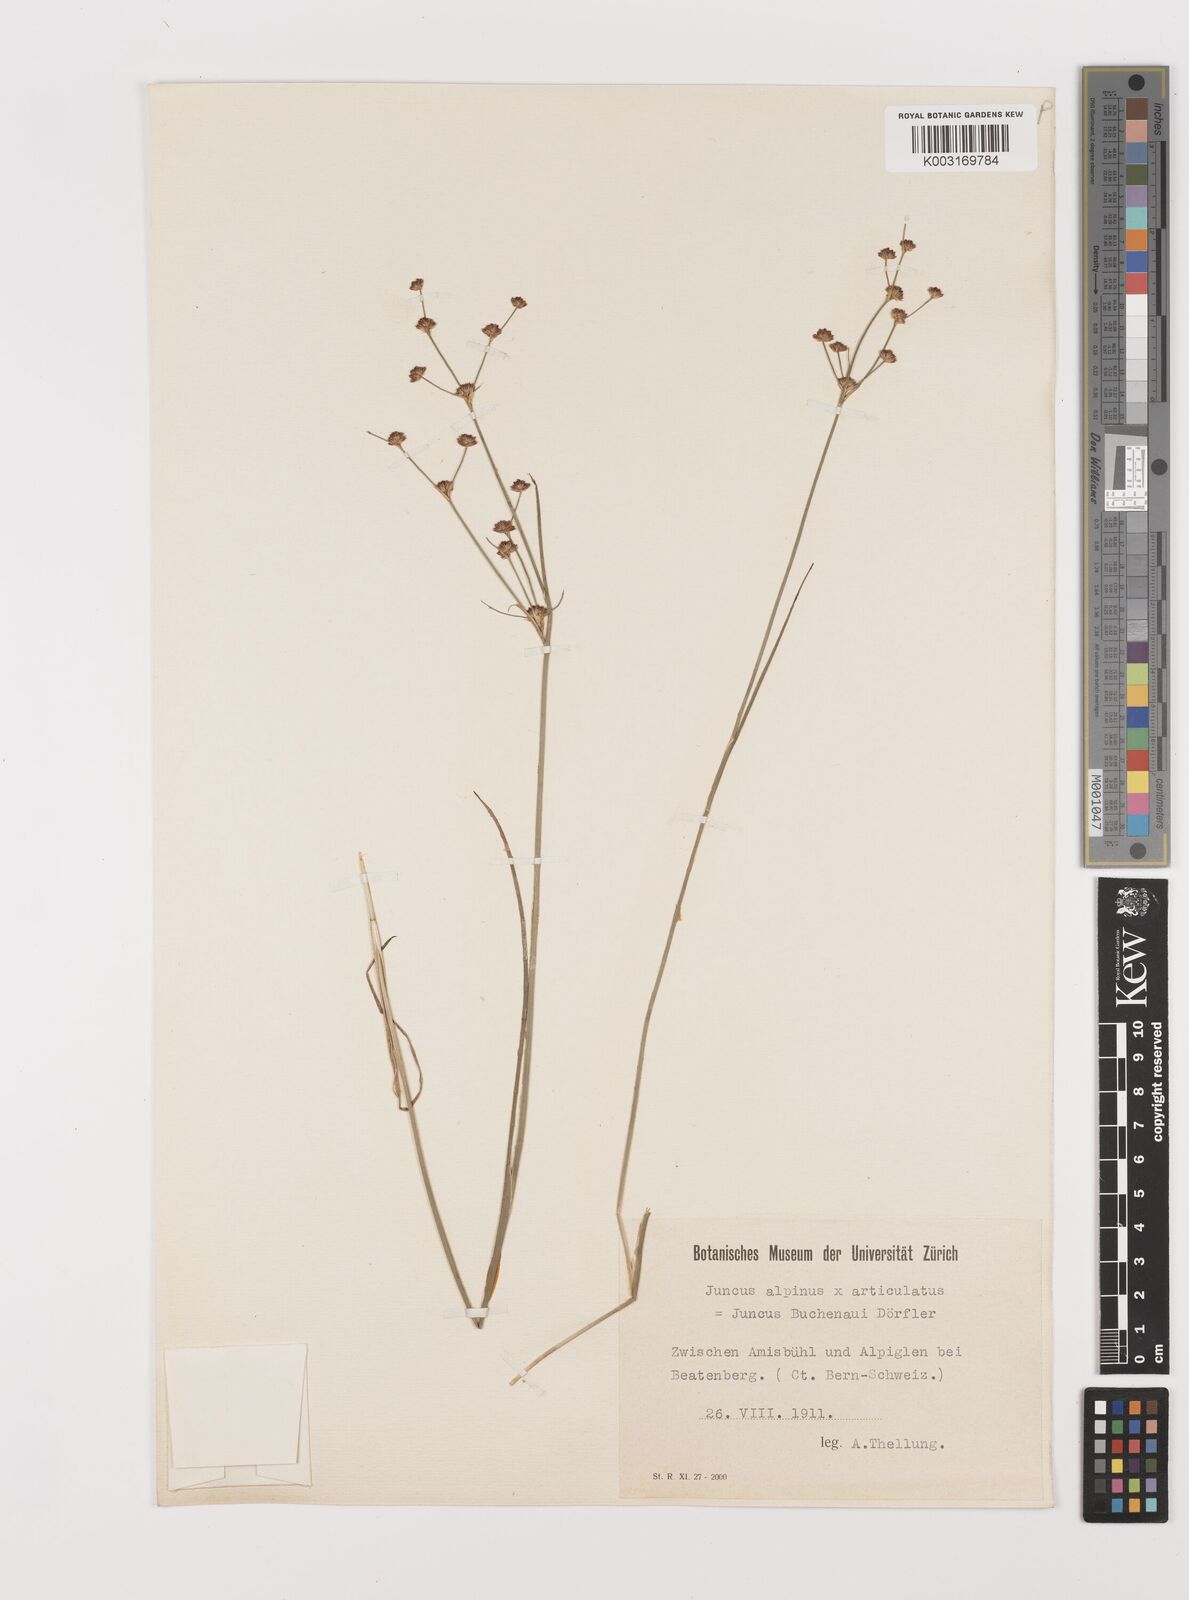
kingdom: Plantae
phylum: Tracheophyta
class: Liliopsida
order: Poales
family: Juncaceae
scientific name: Juncaceae
